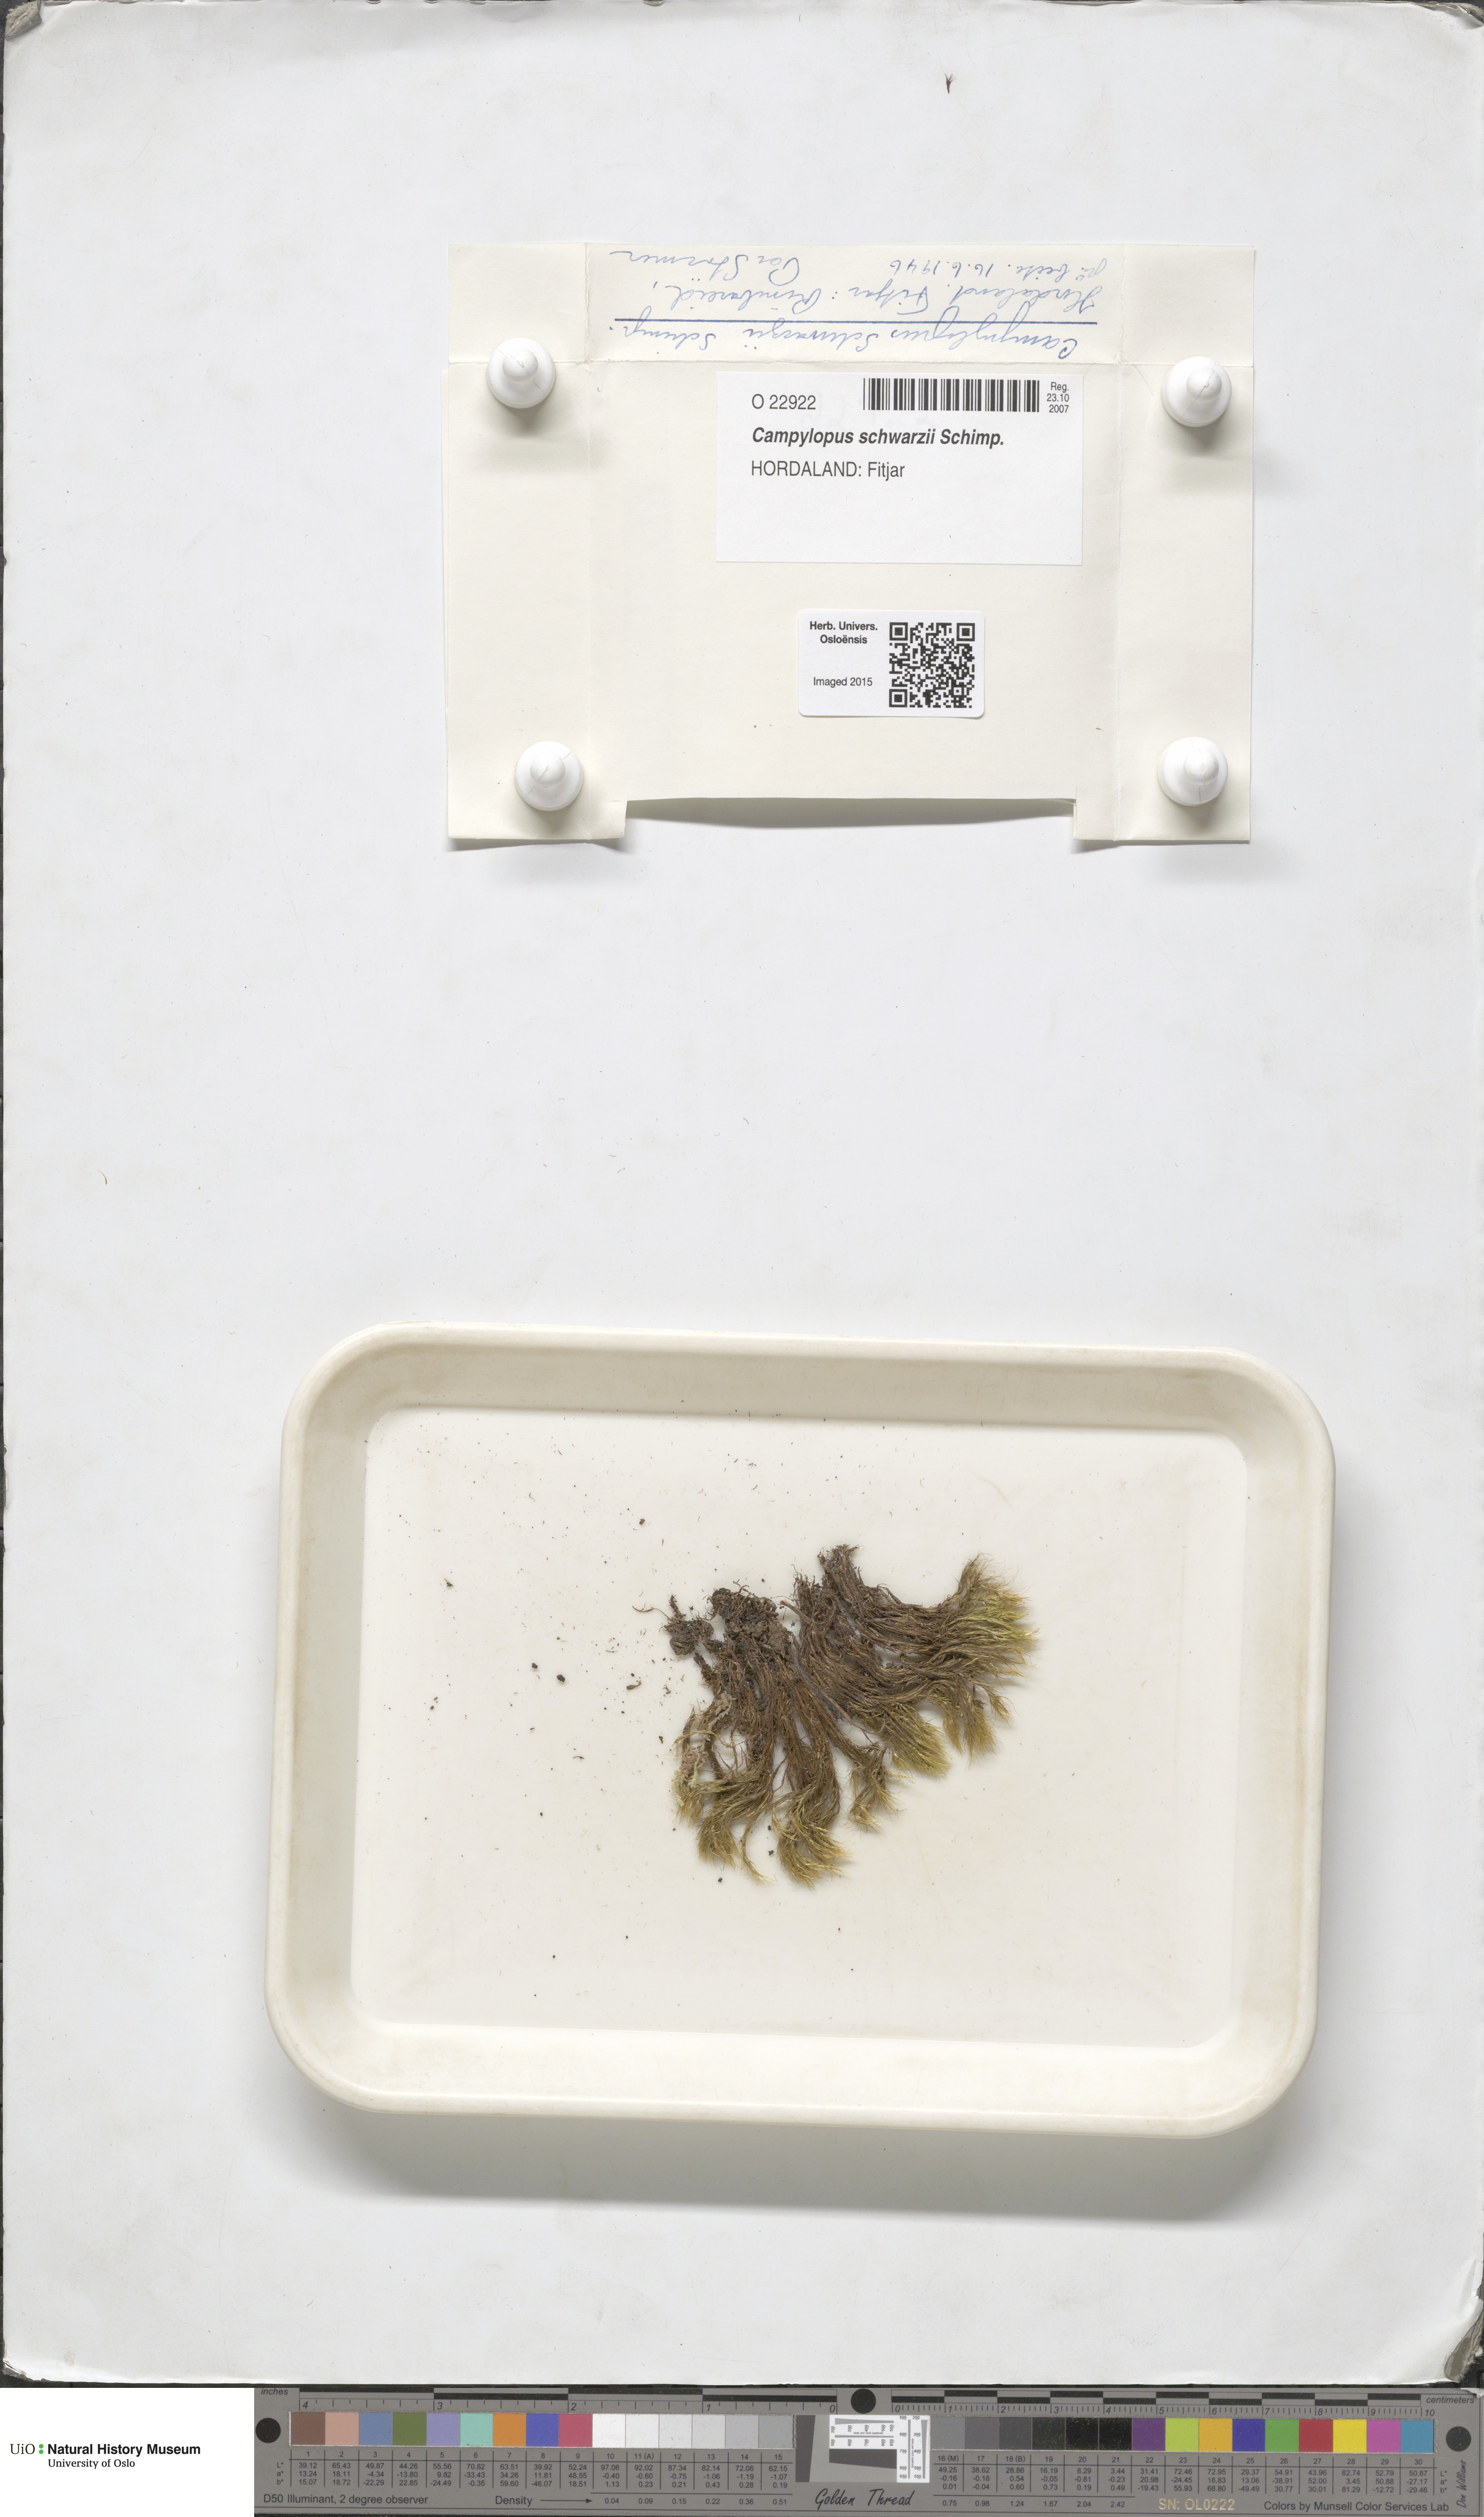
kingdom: Plantae
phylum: Bryophyta
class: Bryopsida
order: Dicranales
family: Leucobryaceae
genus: Campylopus
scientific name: Campylopus gracilis
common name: Schwarz's swan-neck moss
